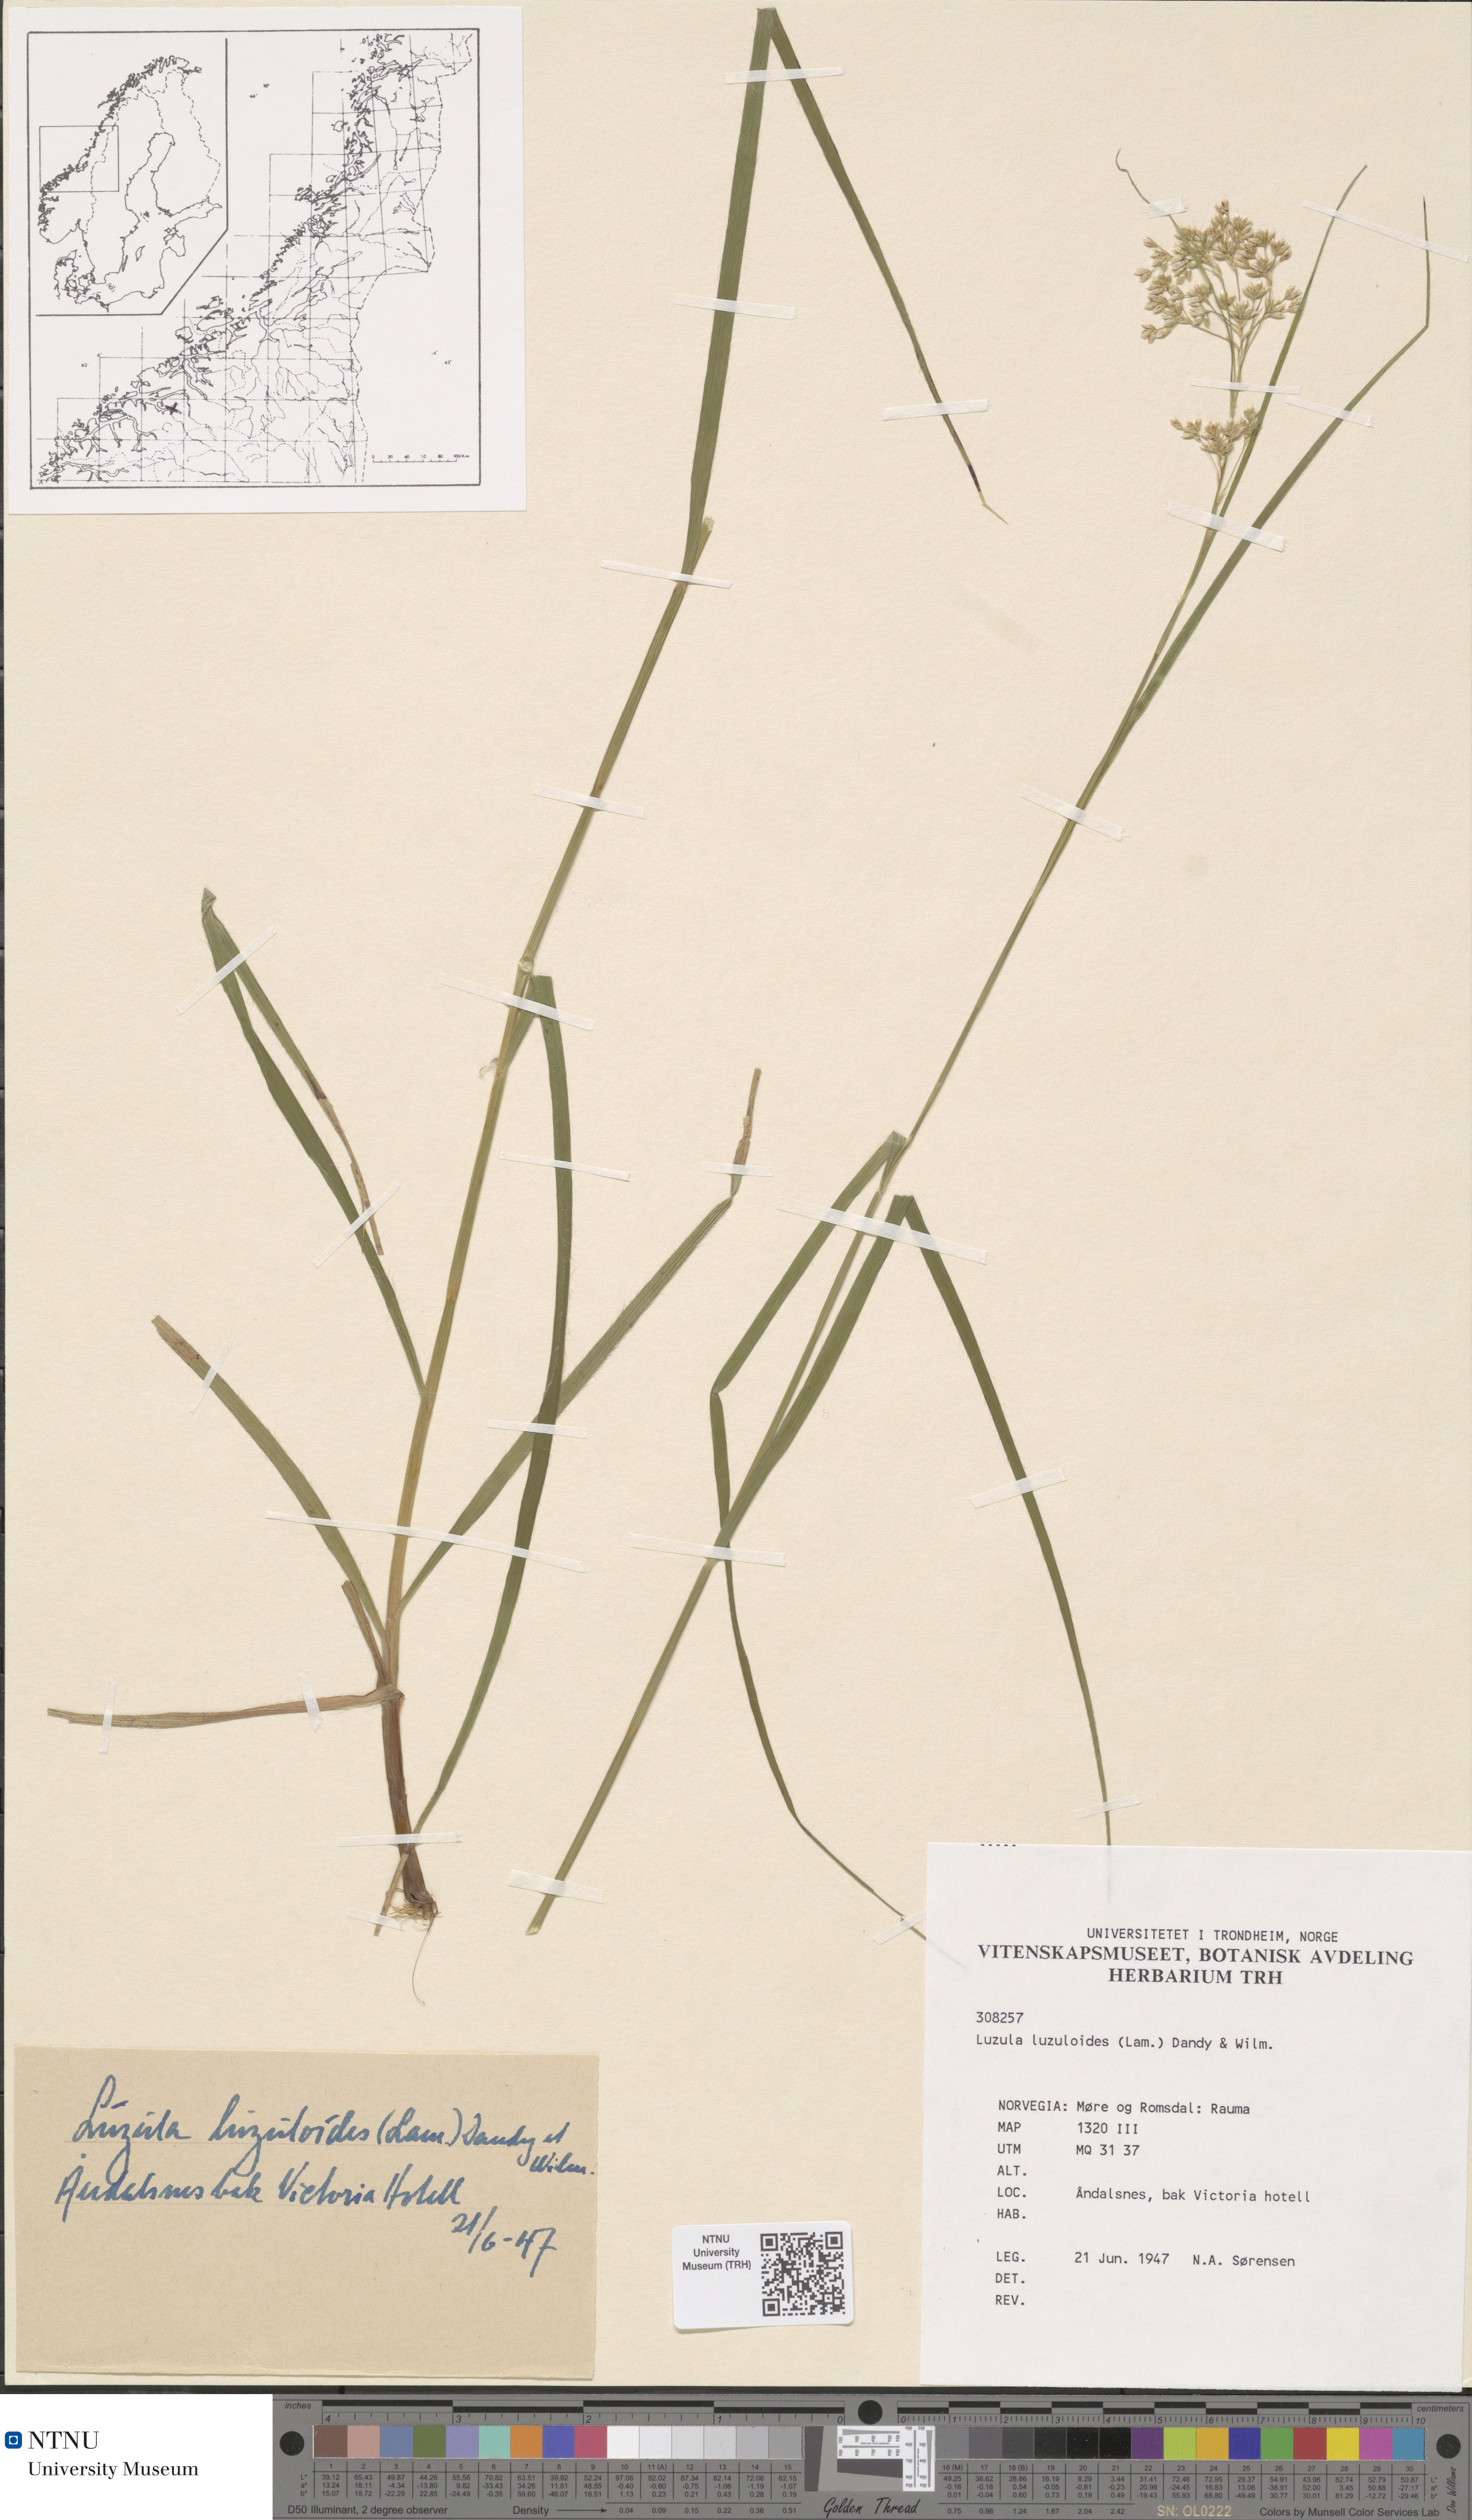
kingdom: Plantae
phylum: Tracheophyta
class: Liliopsida
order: Poales
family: Juncaceae
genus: Luzula
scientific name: Luzula luzuloides
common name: White wood-rush
